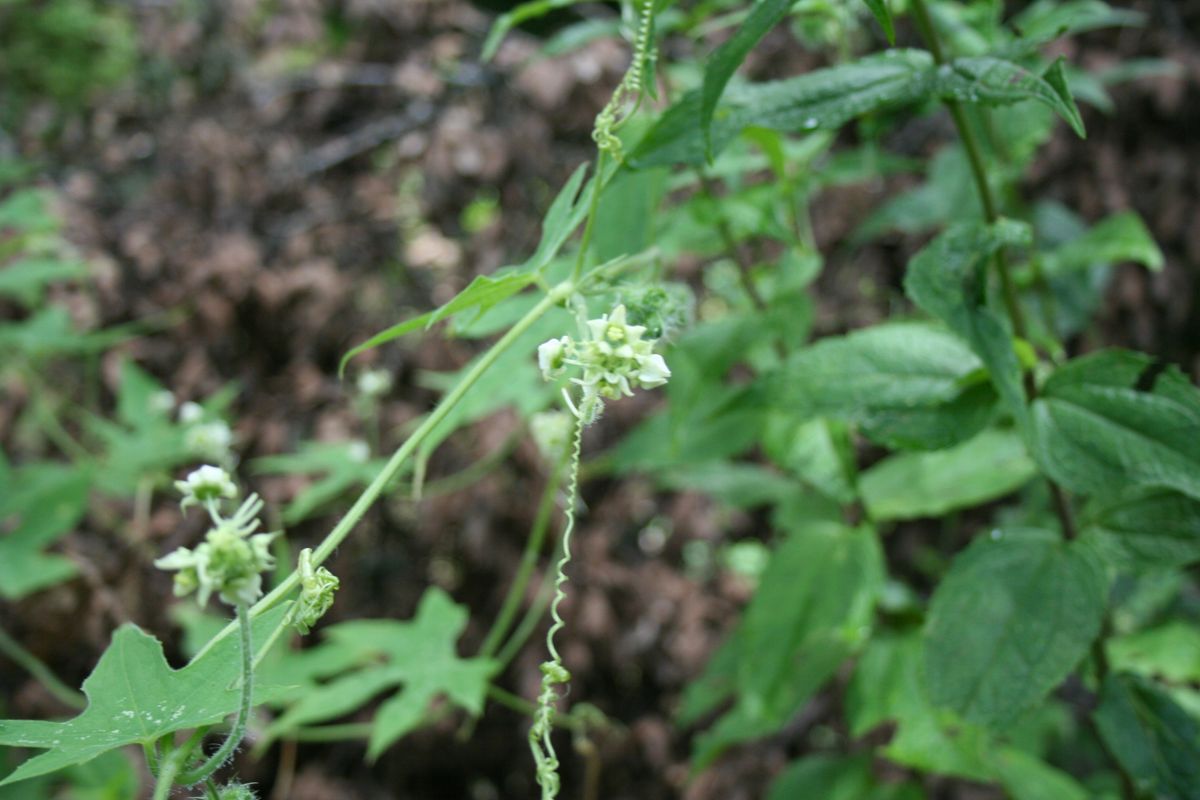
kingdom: Plantae
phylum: Tracheophyta
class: Magnoliopsida
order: Cucurbitales
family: Cucurbitaceae
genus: Sicyos
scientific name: Sicyos sertulifer
